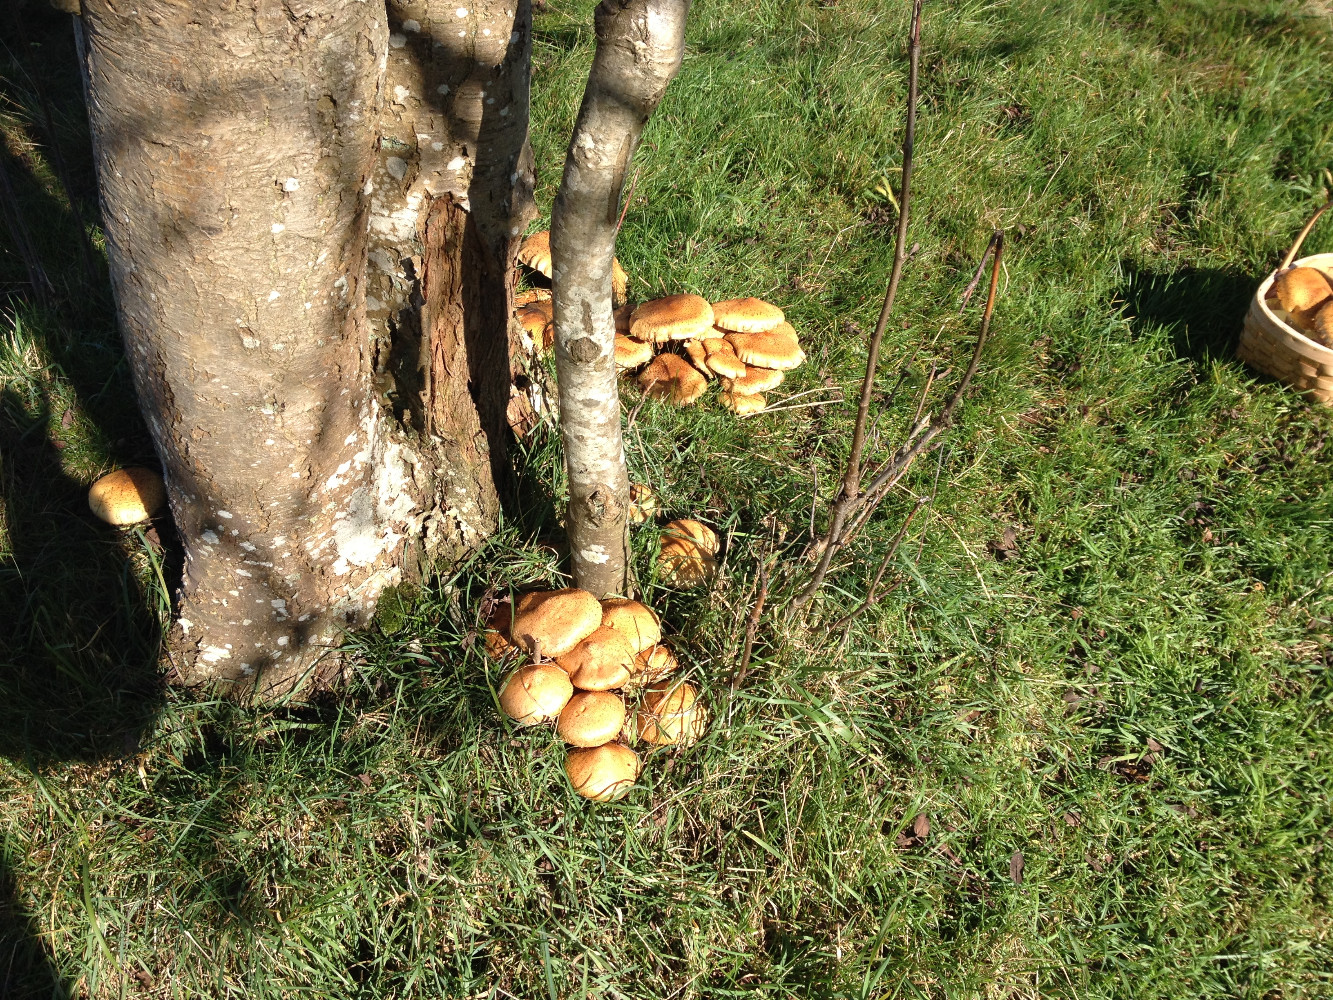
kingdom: Fungi
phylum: Basidiomycota
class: Agaricomycetes
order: Agaricales
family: Strophariaceae
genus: Pholiota
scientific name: Pholiota squarrosa
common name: krumskællet skælhat
